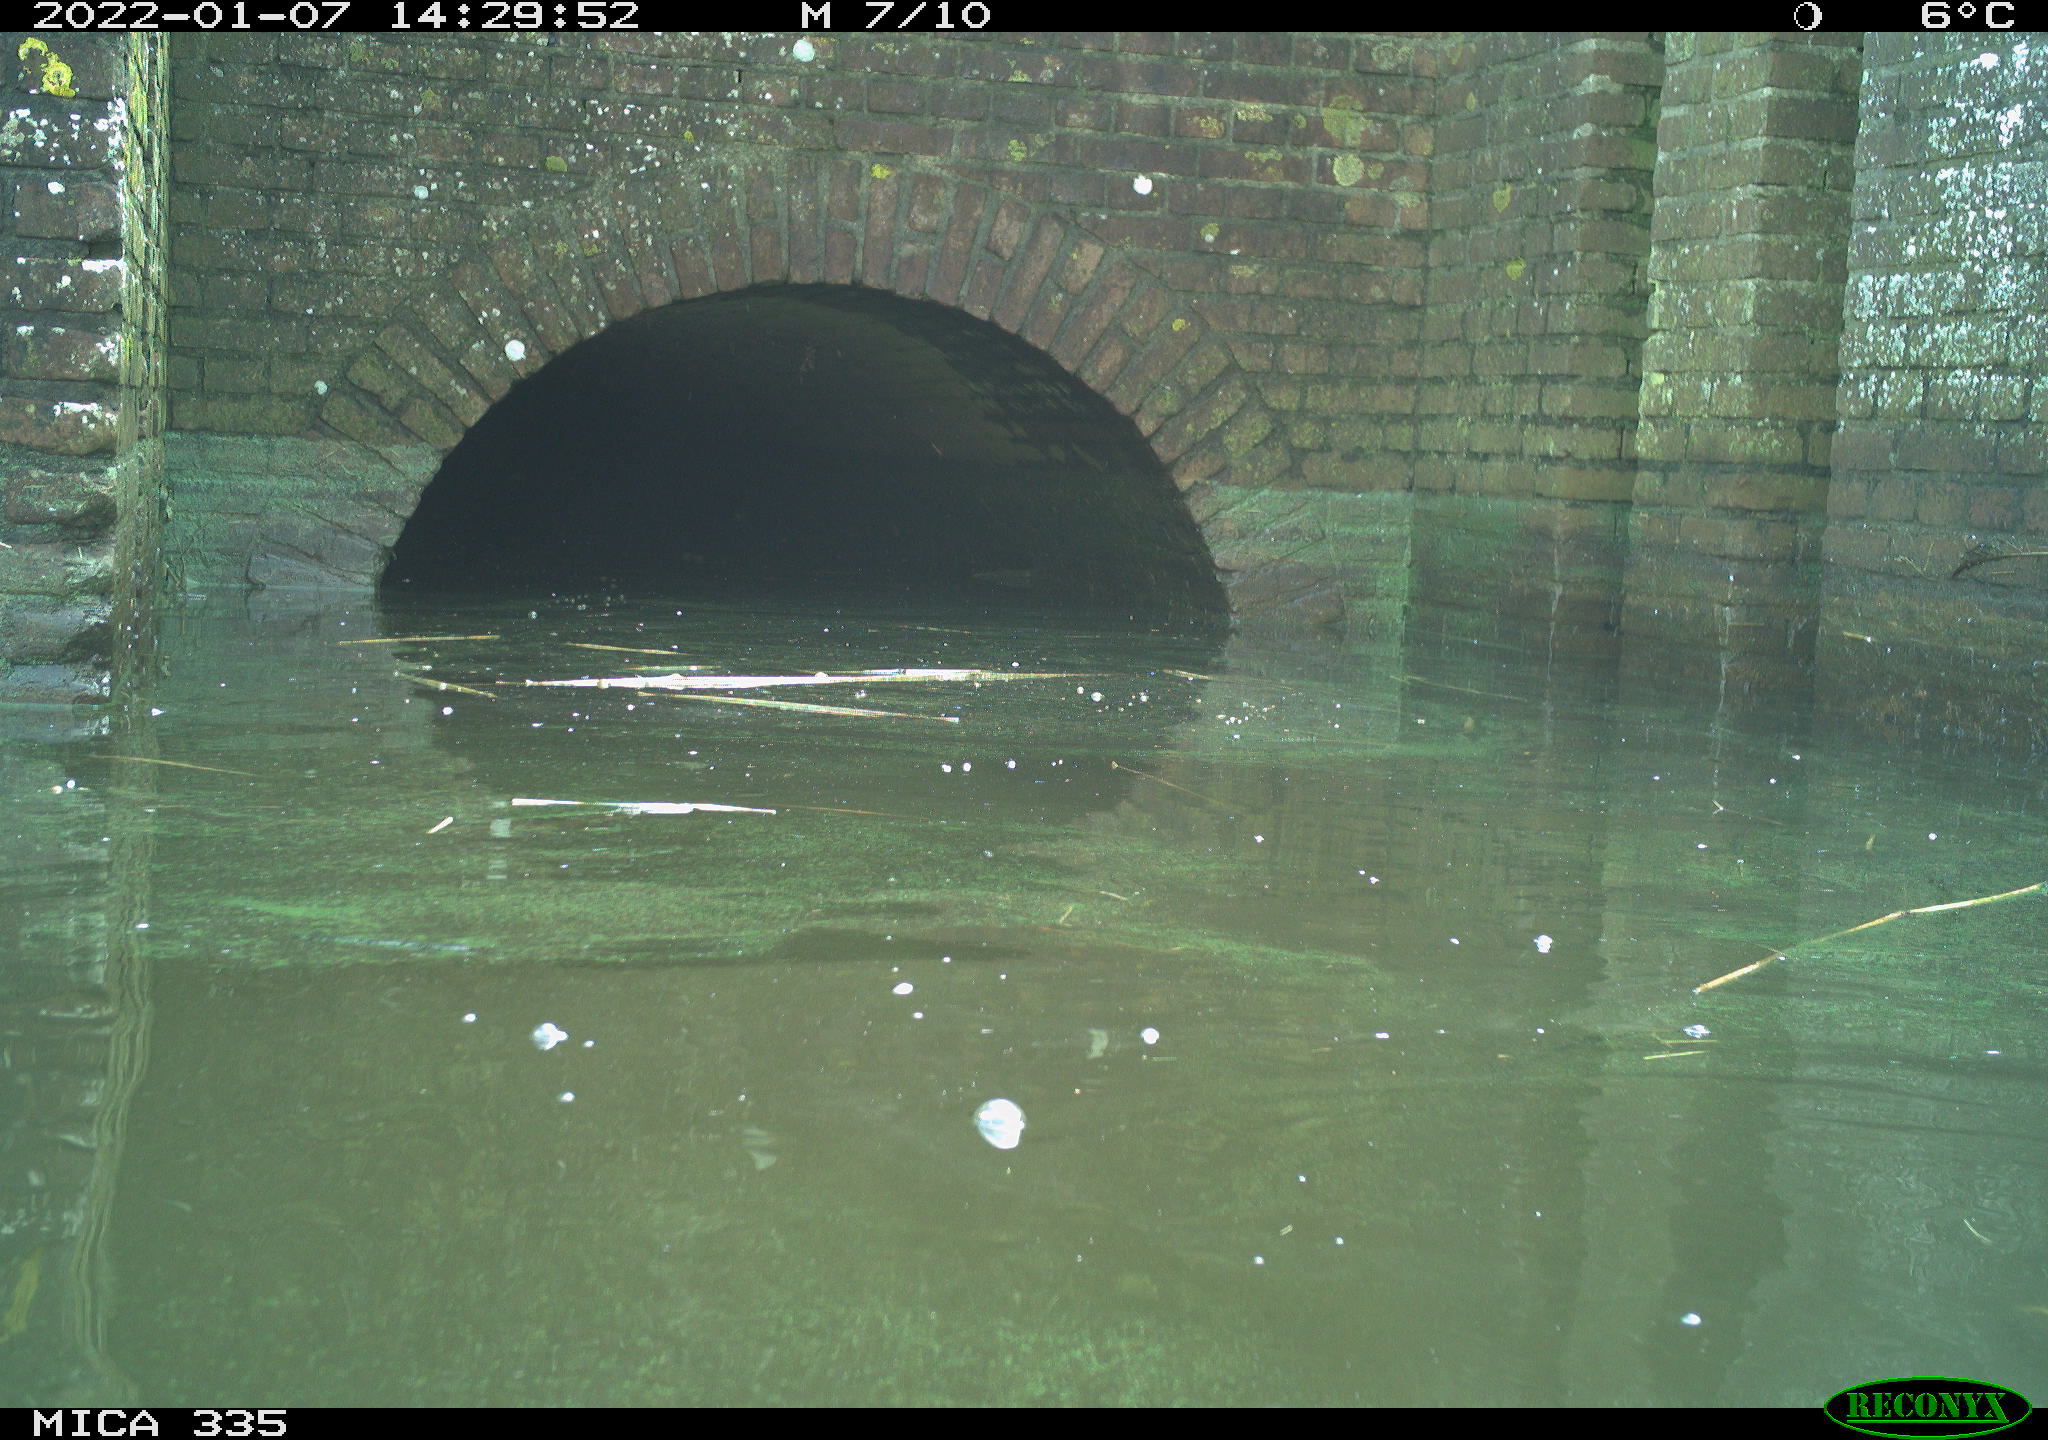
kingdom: Animalia
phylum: Chordata
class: Aves
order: Suliformes
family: Phalacrocoracidae
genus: Phalacrocorax
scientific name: Phalacrocorax carbo
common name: Great cormorant
